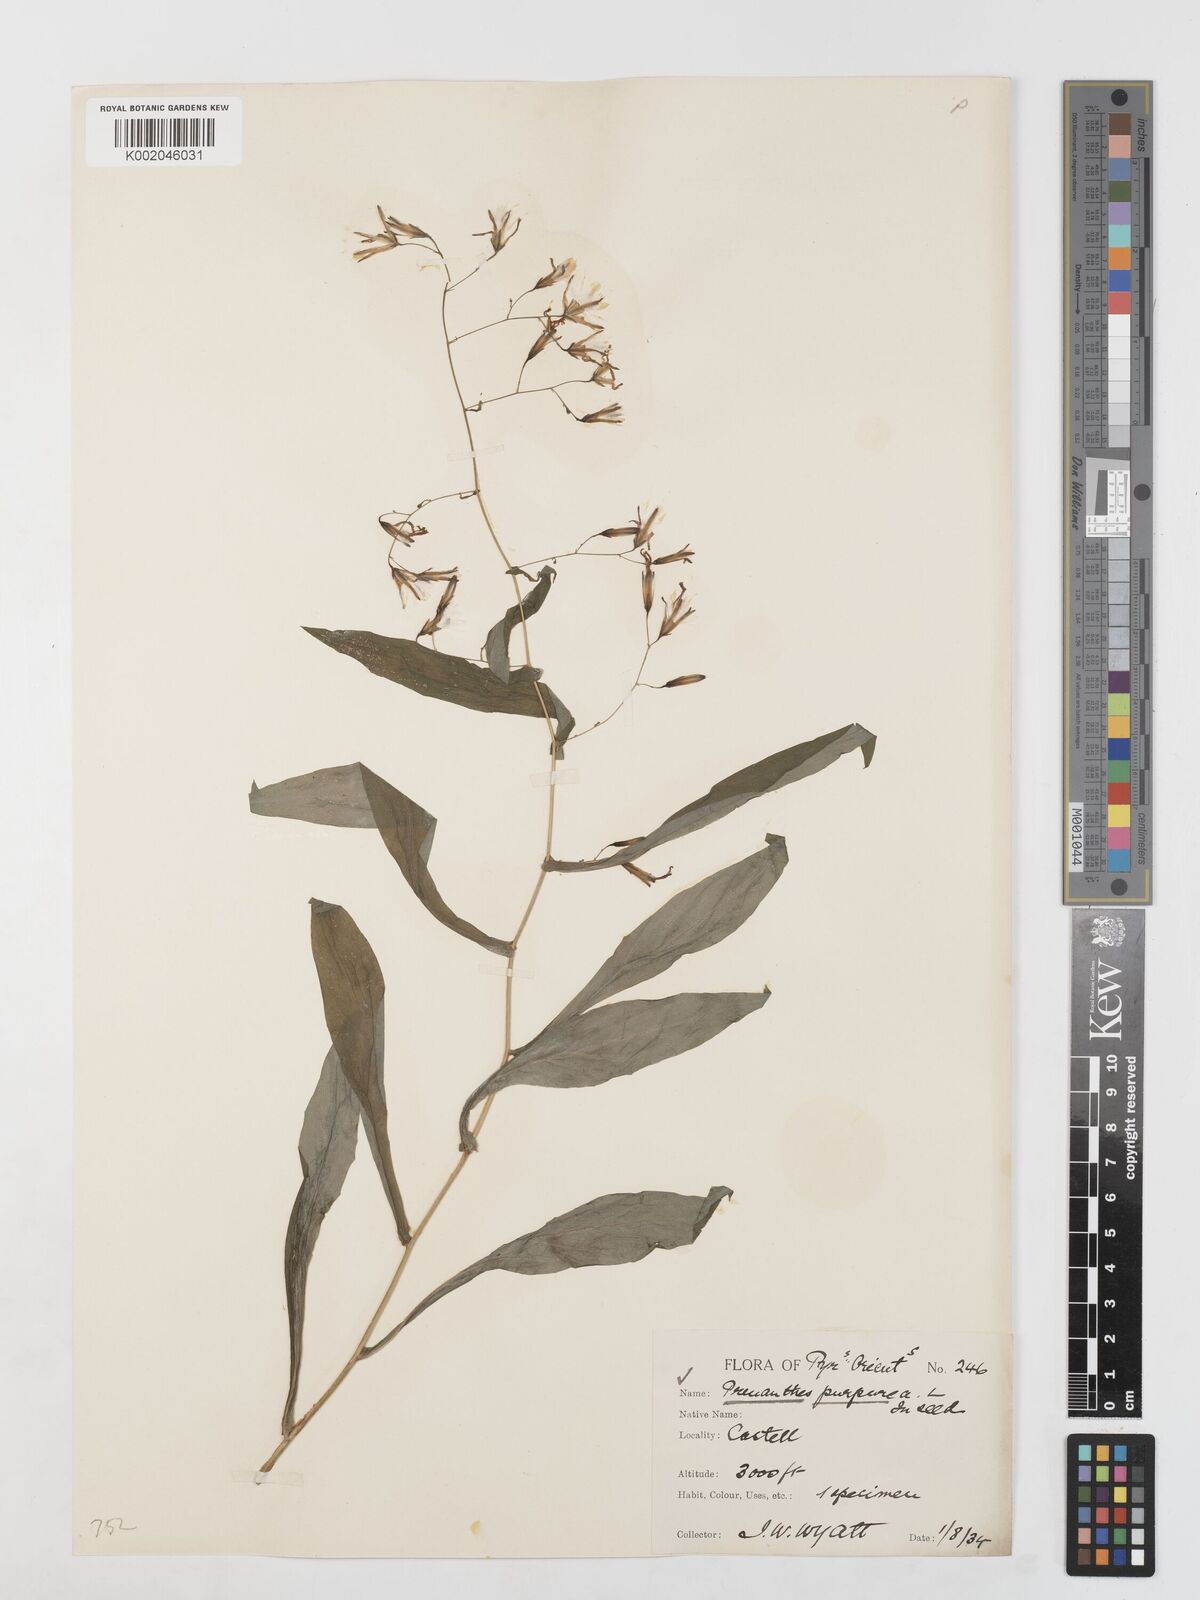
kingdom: Plantae
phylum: Tracheophyta
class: Magnoliopsida
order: Asterales
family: Asteraceae
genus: Prenanthes
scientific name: Prenanthes purpurea
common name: Purple lettuce
